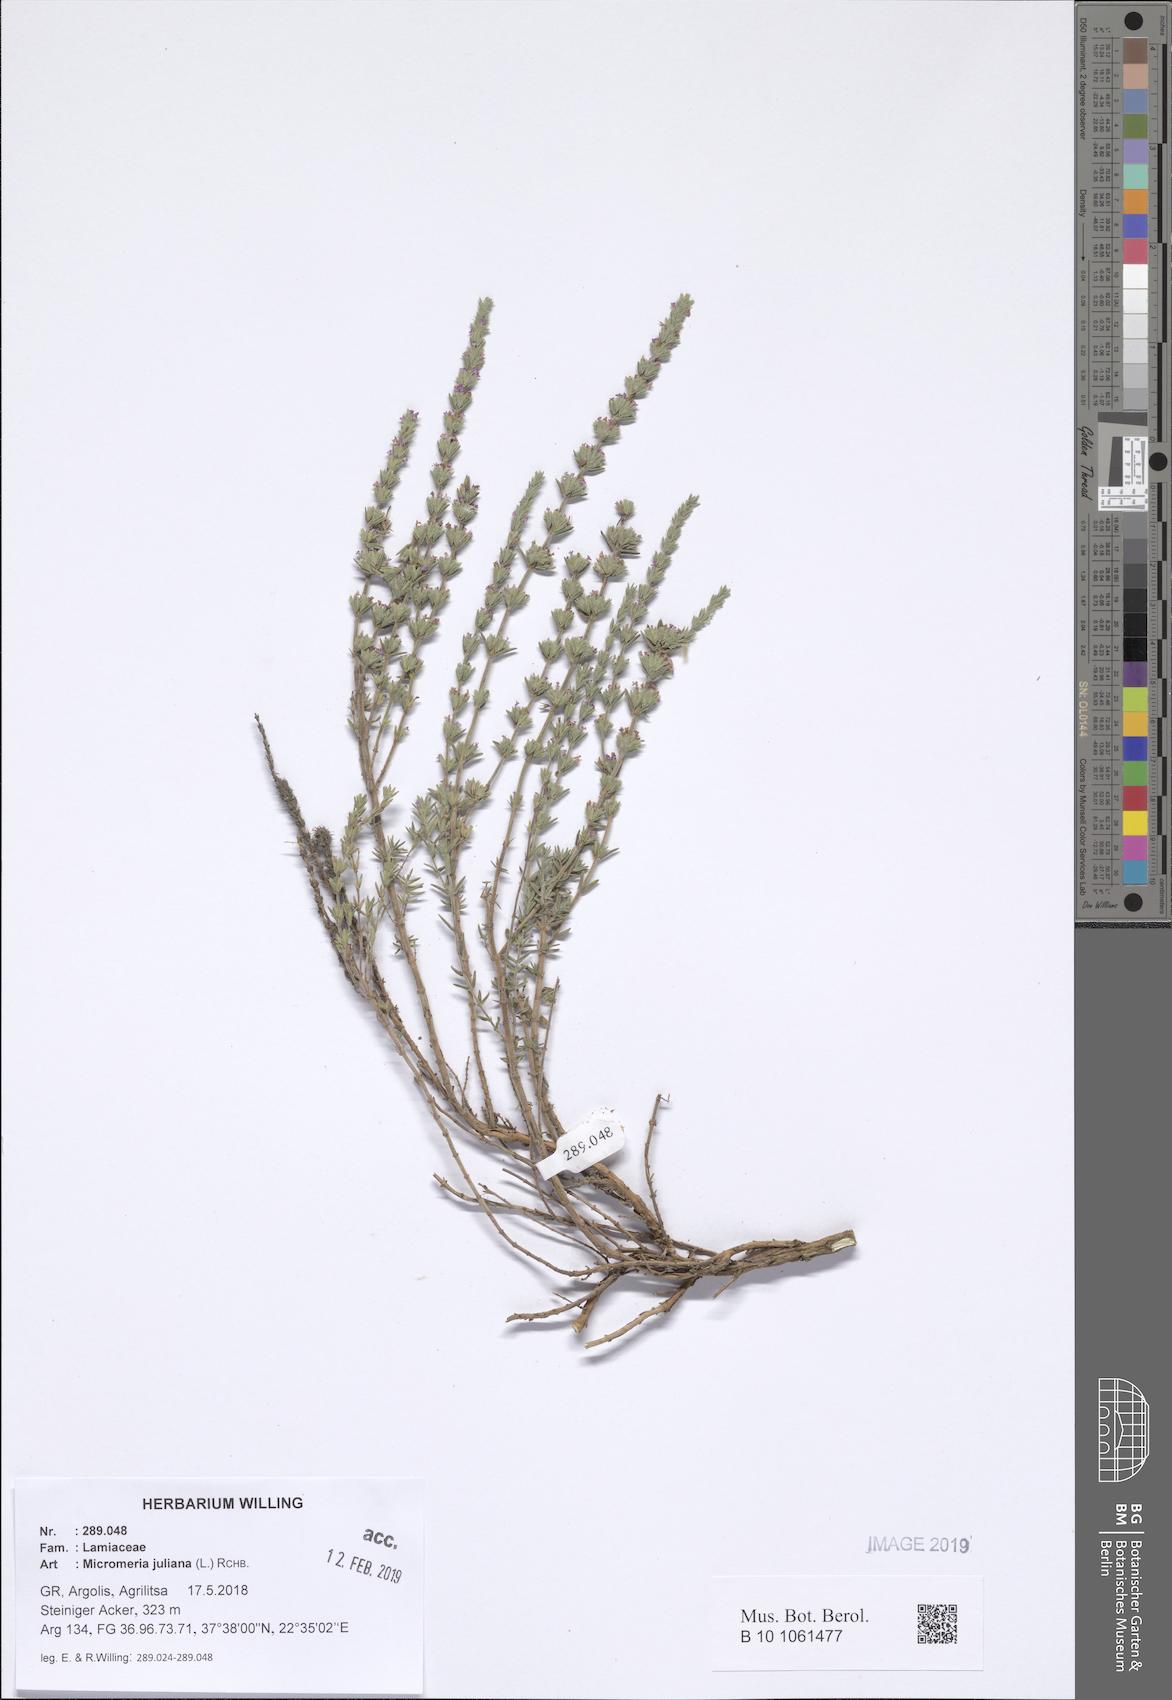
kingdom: Plantae
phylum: Tracheophyta
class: Magnoliopsida
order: Lamiales
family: Lamiaceae
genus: Micromeria
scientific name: Micromeria juliana
